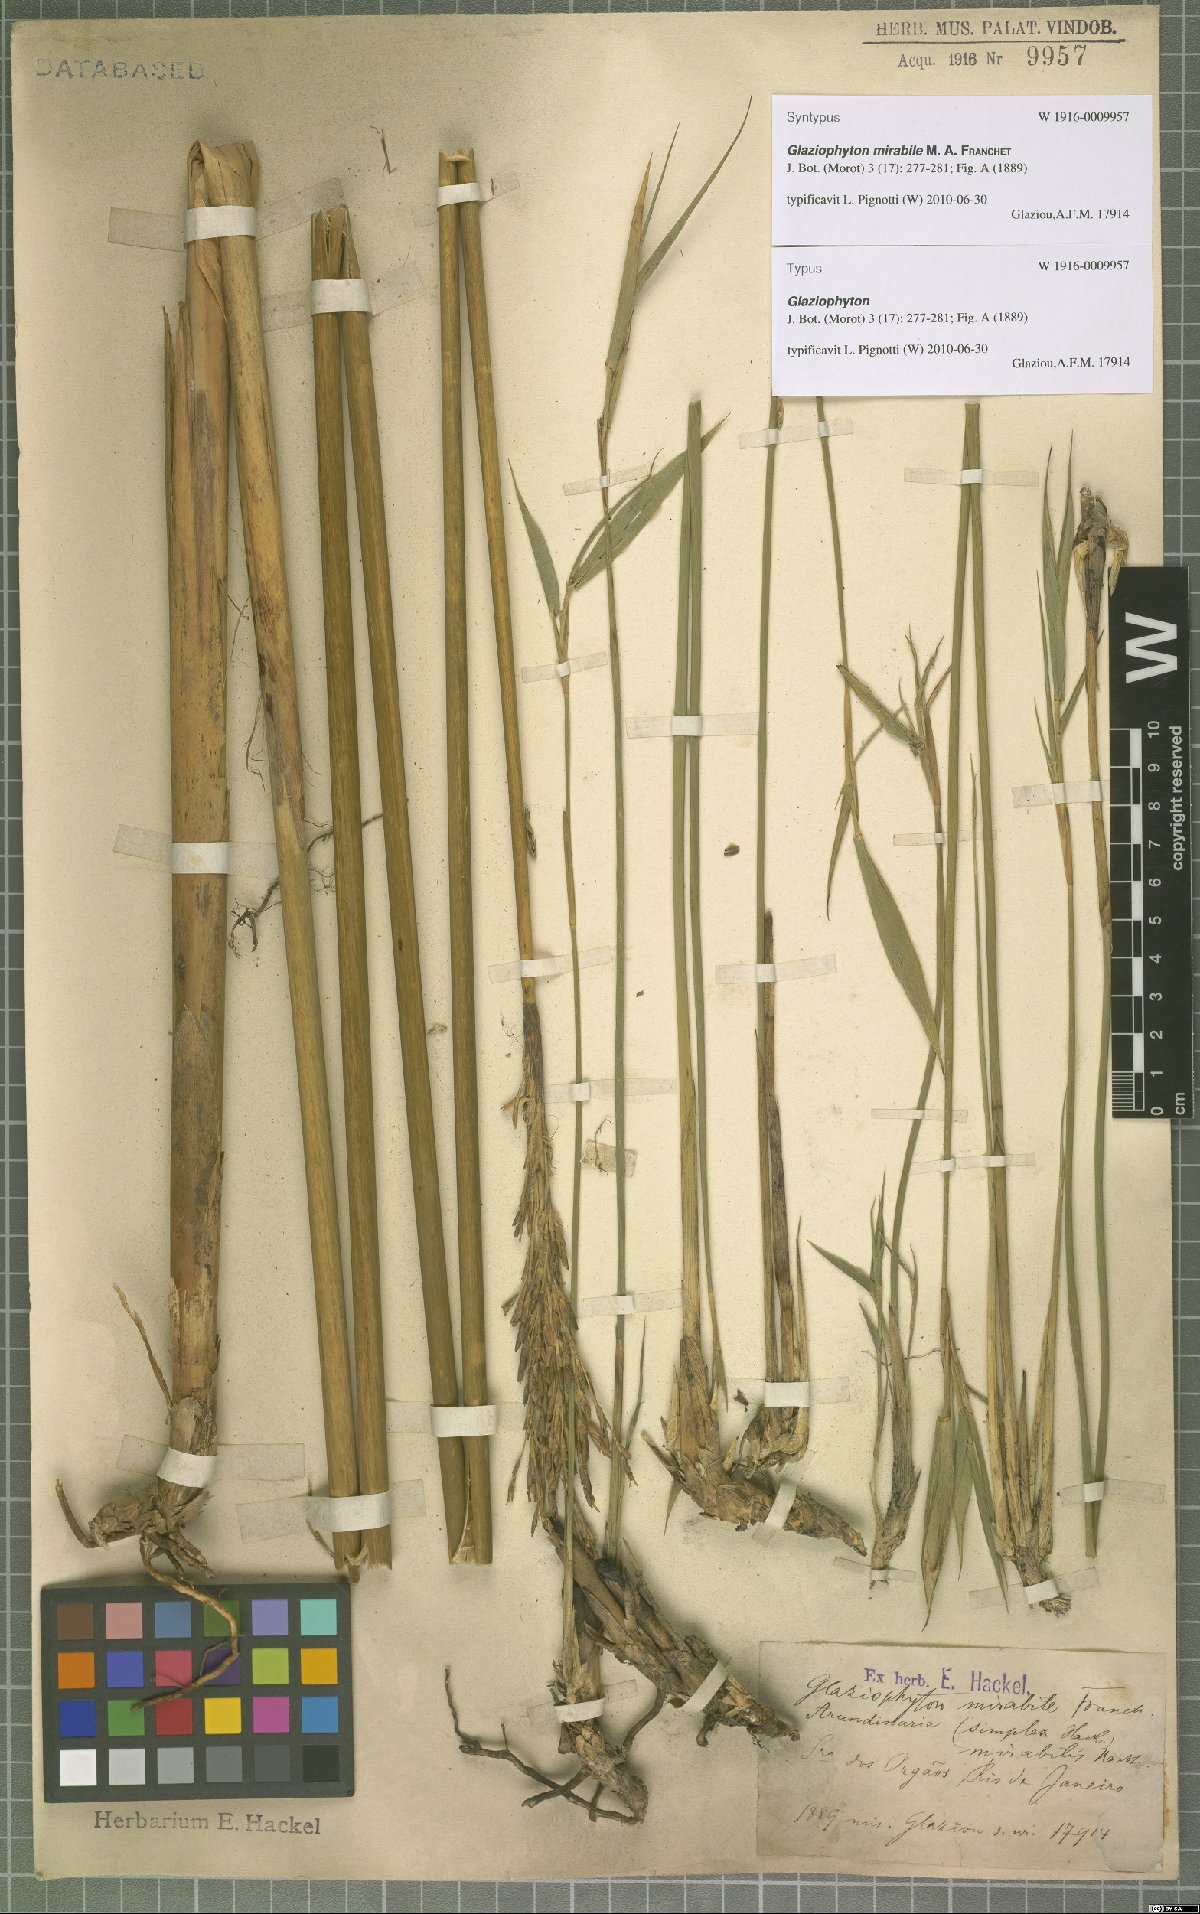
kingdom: Plantae
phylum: Tracheophyta
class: Liliopsida
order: Poales
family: Poaceae
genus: Glaziophyton
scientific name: Glaziophyton mirabile
